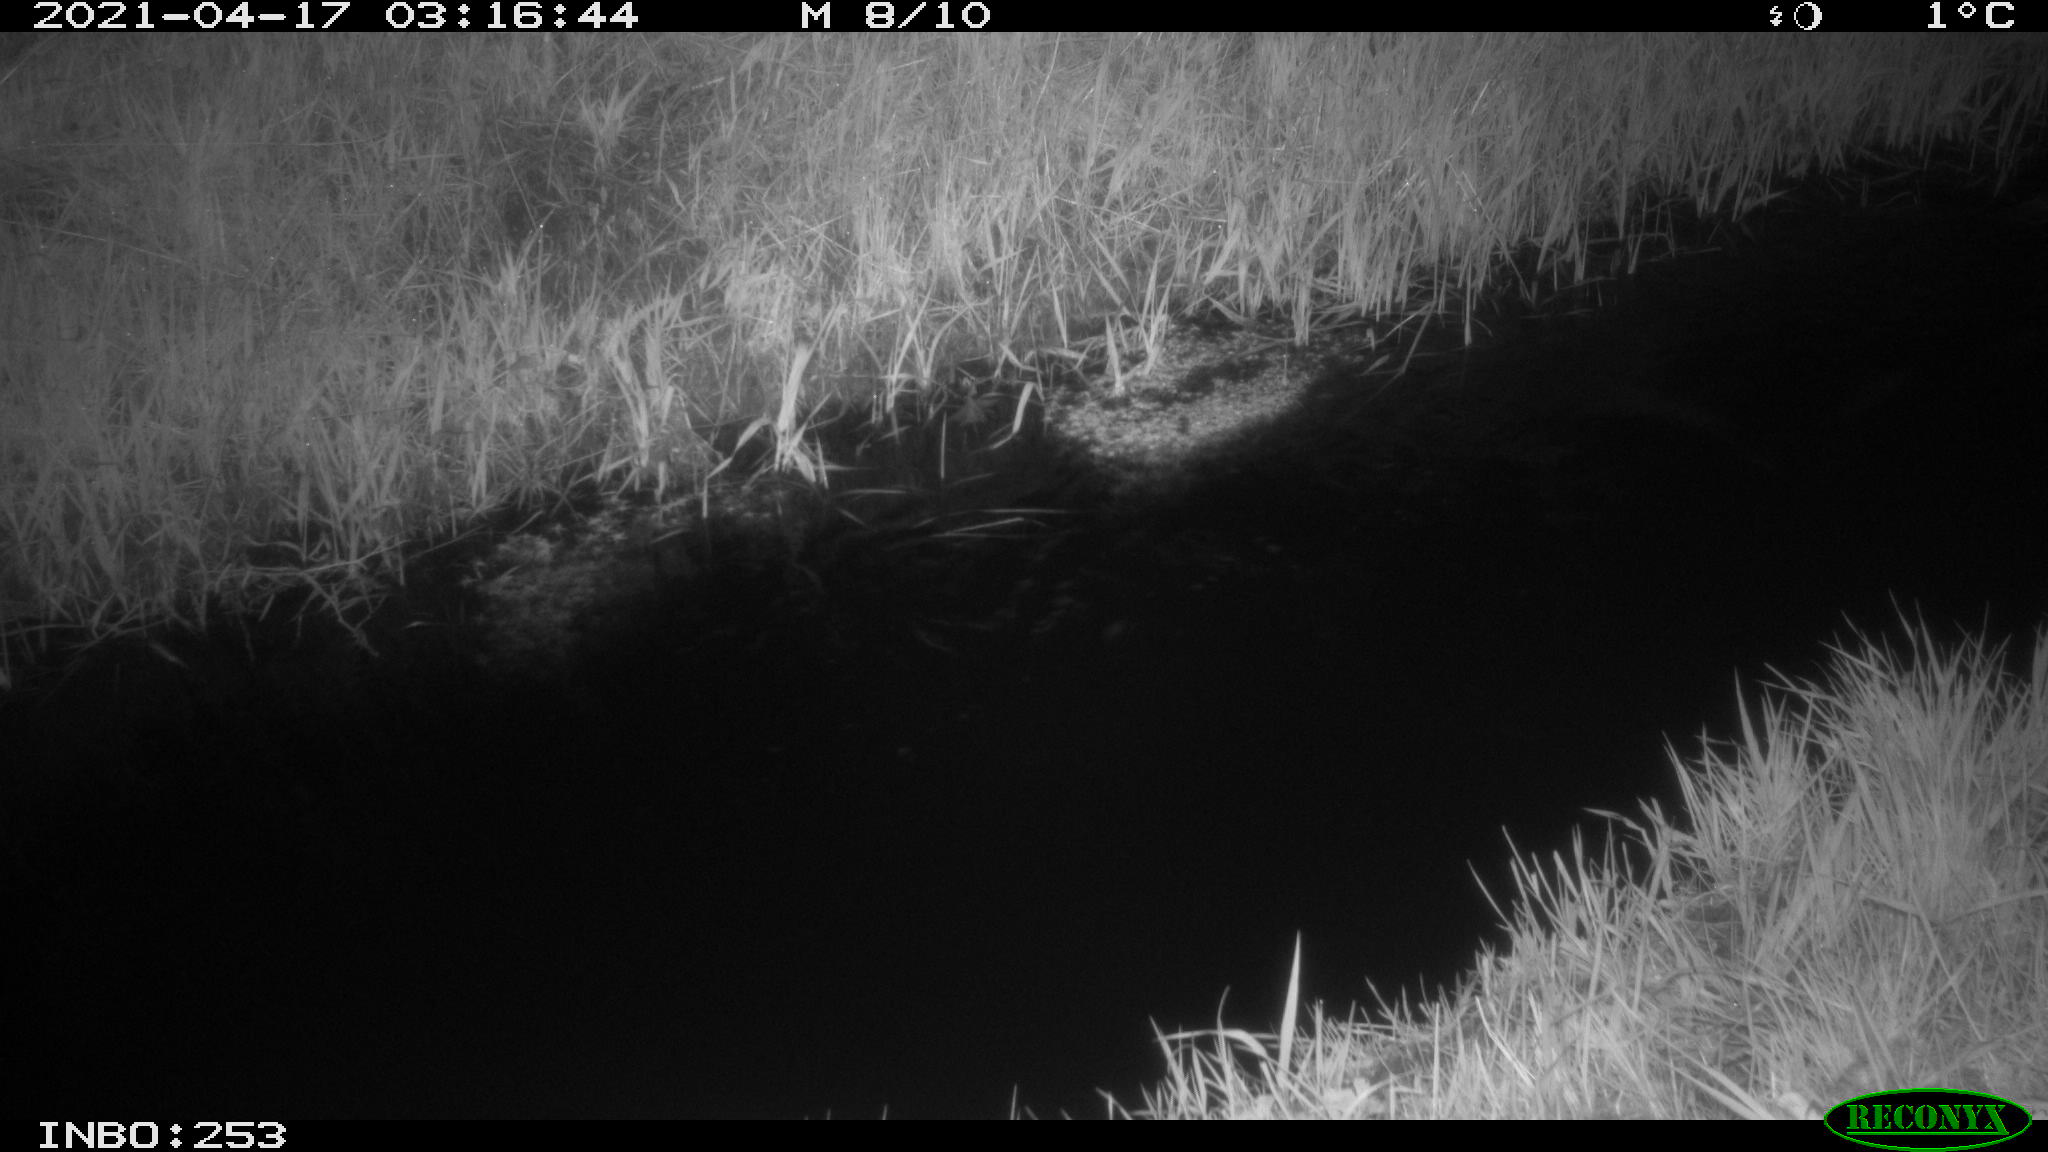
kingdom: Animalia
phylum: Chordata
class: Aves
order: Anseriformes
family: Anatidae
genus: Anas
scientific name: Anas platyrhynchos
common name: Mallard
